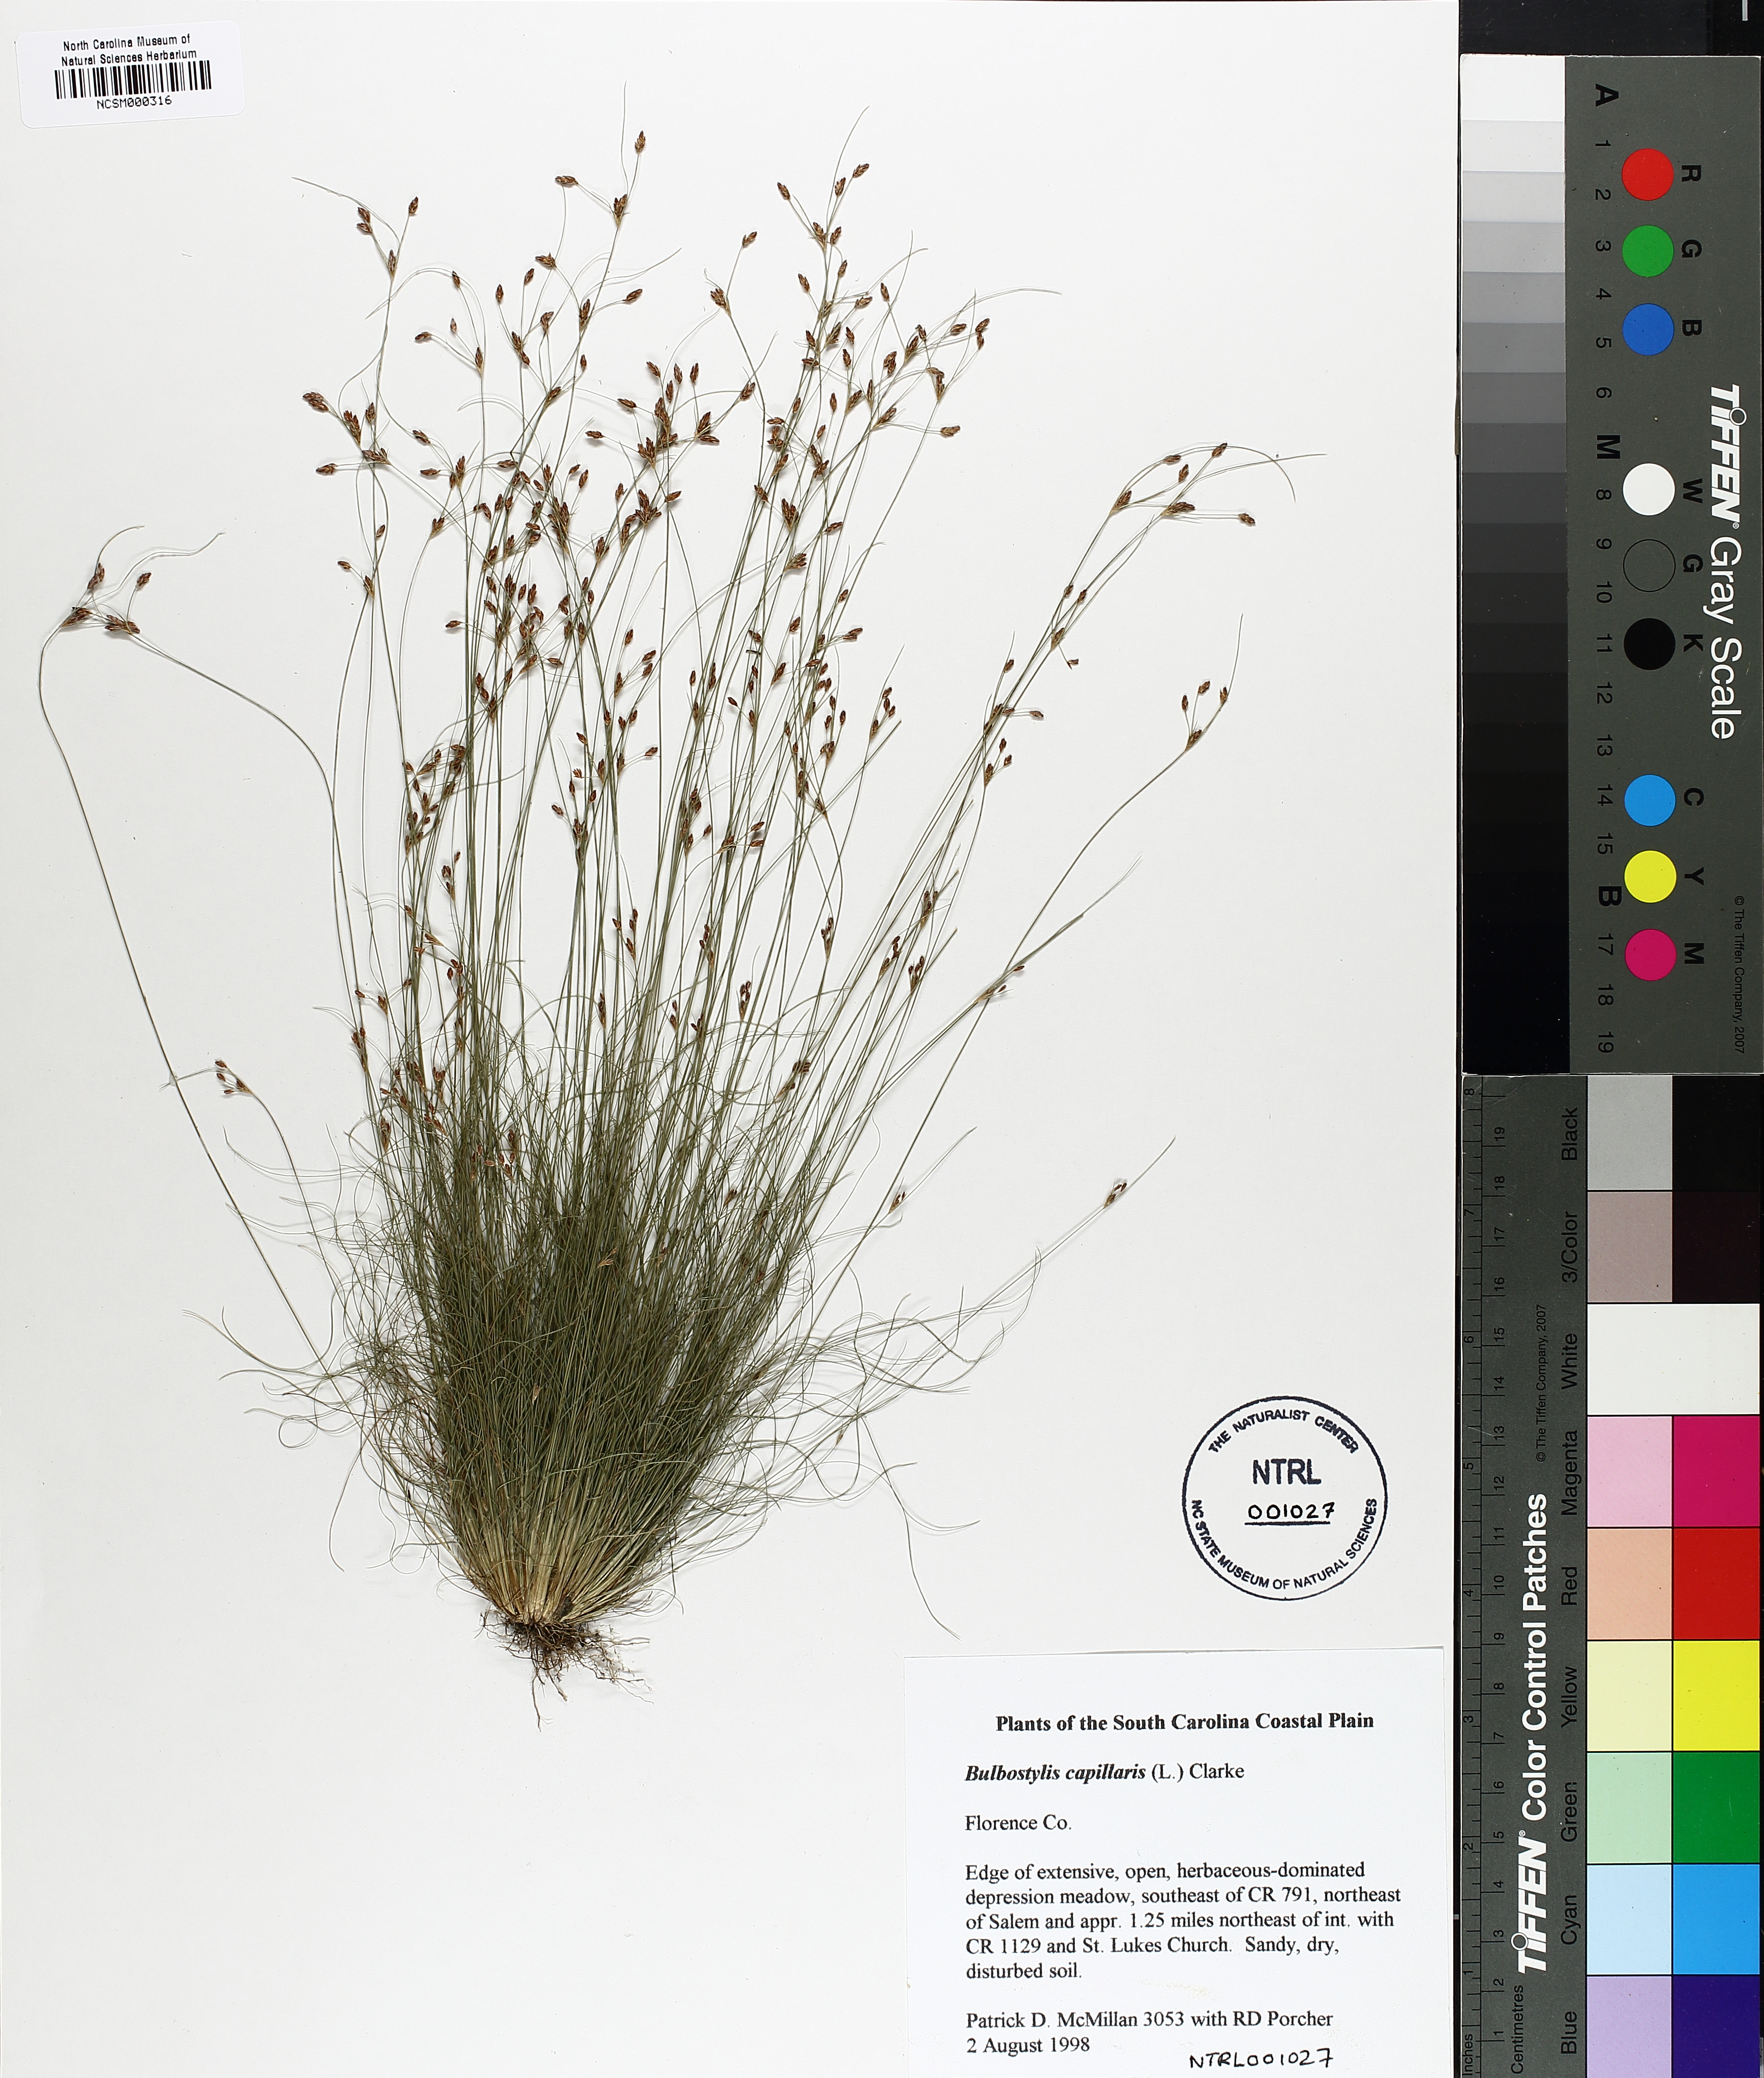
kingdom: Plantae
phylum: Tracheophyta
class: Liliopsida
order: Poales
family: Cyperaceae
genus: Bulbostylis
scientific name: Bulbostylis capillaris
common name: Densetuft hairsedge
